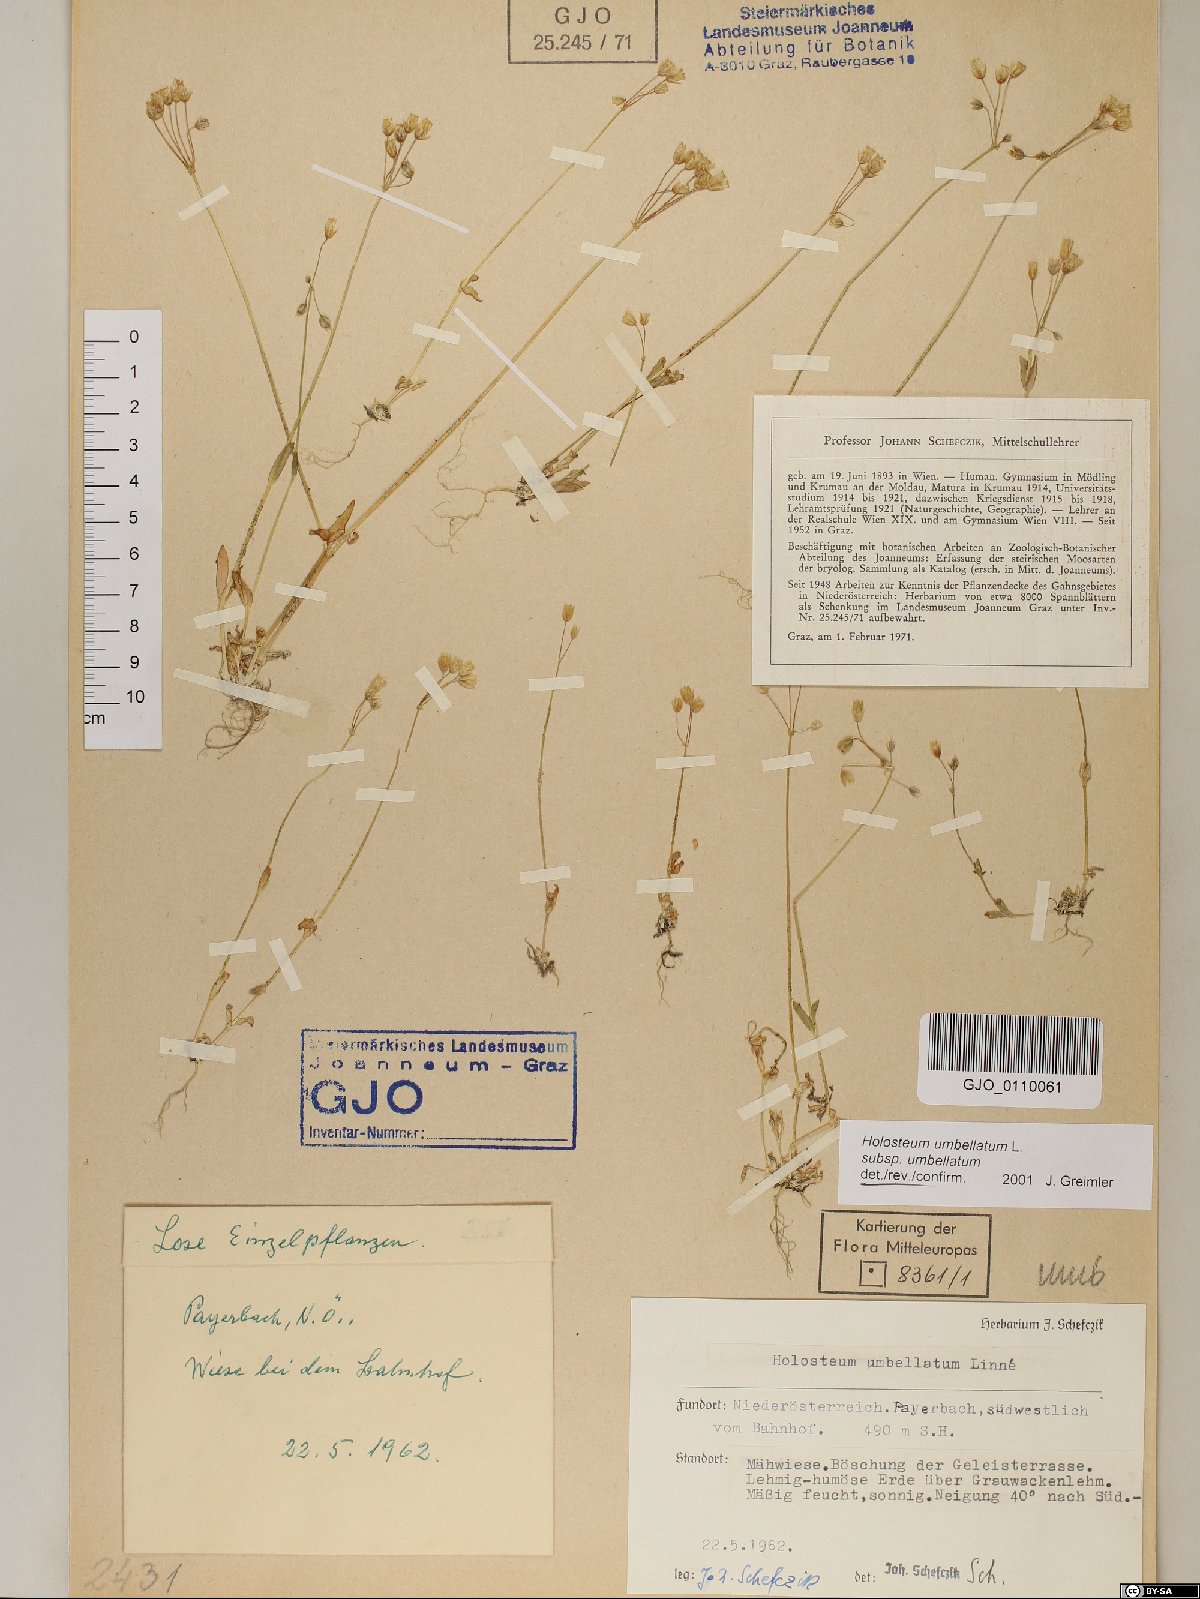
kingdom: Plantae
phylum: Tracheophyta
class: Magnoliopsida
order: Caryophyllales
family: Caryophyllaceae
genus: Holosteum
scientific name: Holosteum umbellatum
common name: Jagged chickweed
